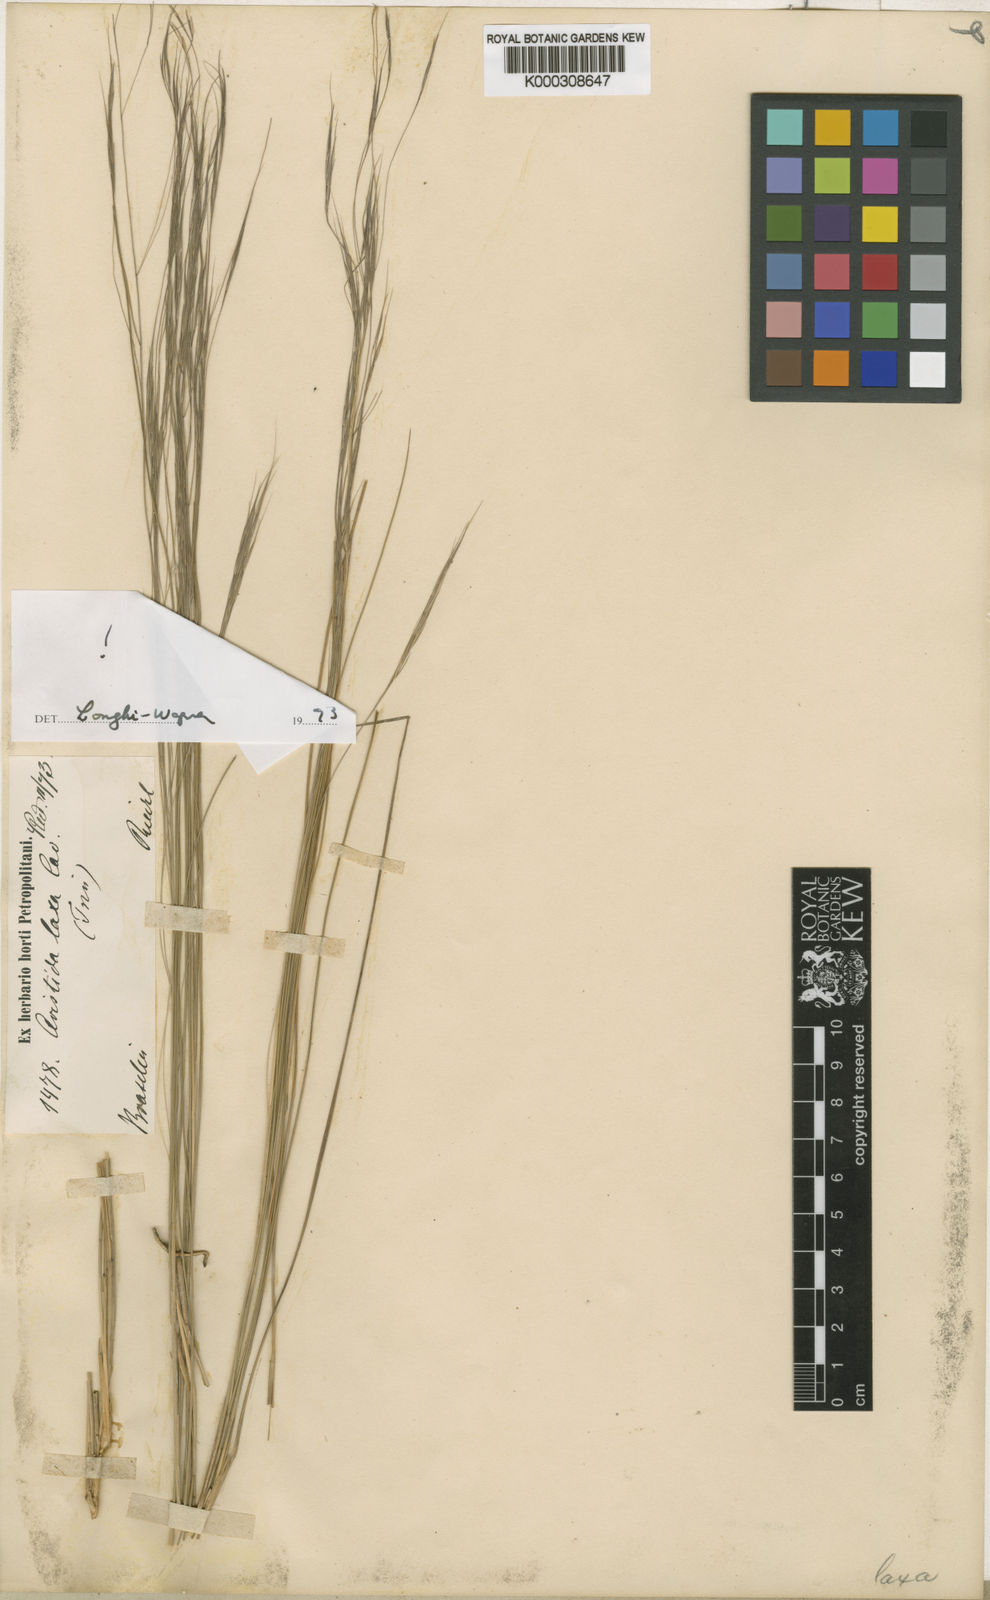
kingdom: Plantae
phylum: Tracheophyta
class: Liliopsida
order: Poales
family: Poaceae
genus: Aristida
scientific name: Aristida flaccida
